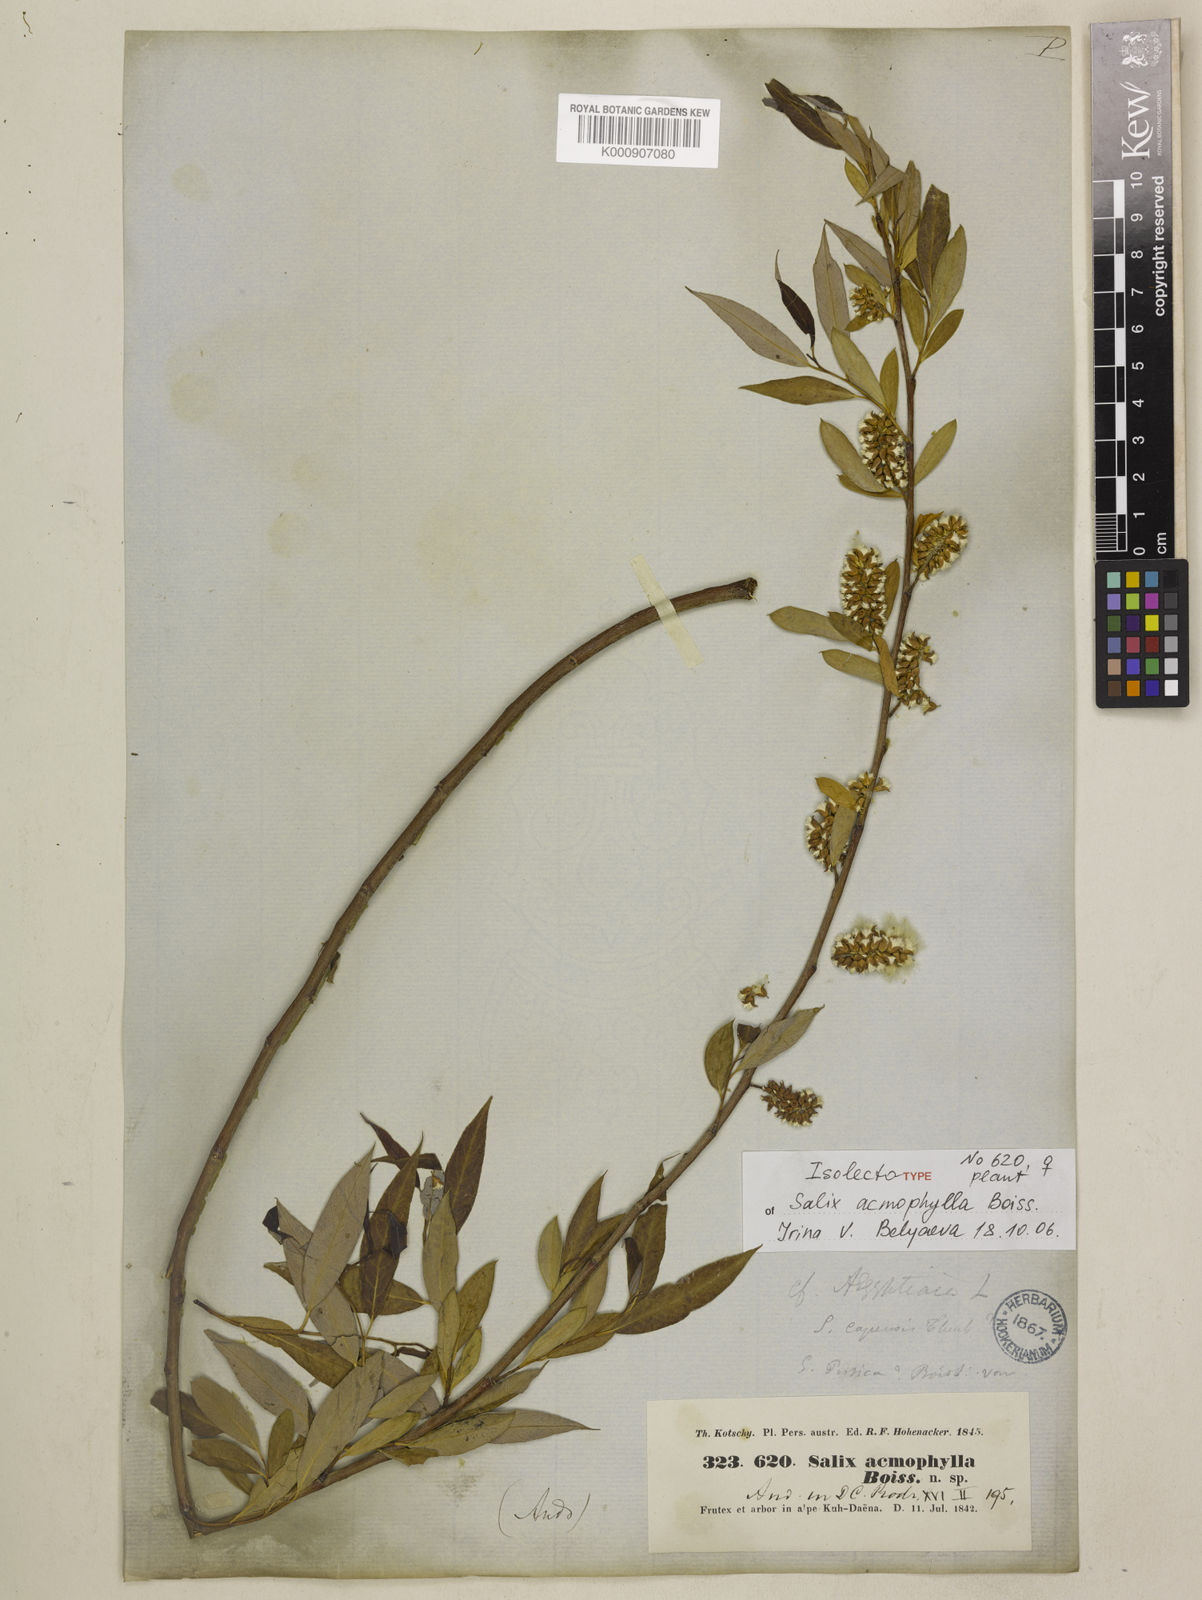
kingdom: Plantae
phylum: Tracheophyta
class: Magnoliopsida
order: Malpighiales
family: Salicaceae
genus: Salix
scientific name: Salix acmophylla
